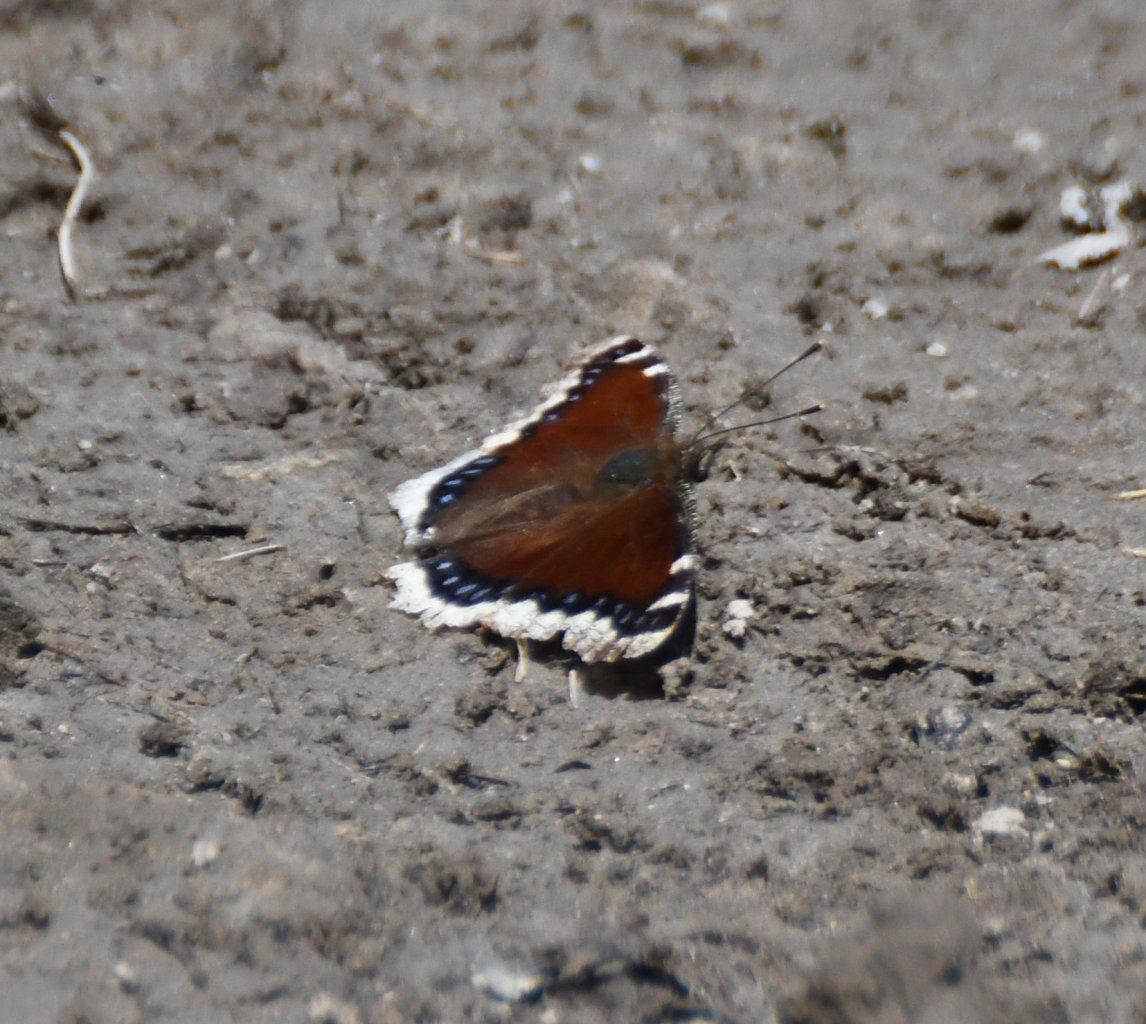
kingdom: Animalia
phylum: Arthropoda
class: Insecta
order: Lepidoptera
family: Nymphalidae
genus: Nymphalis
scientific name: Nymphalis antiopa
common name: Mourning Cloak
